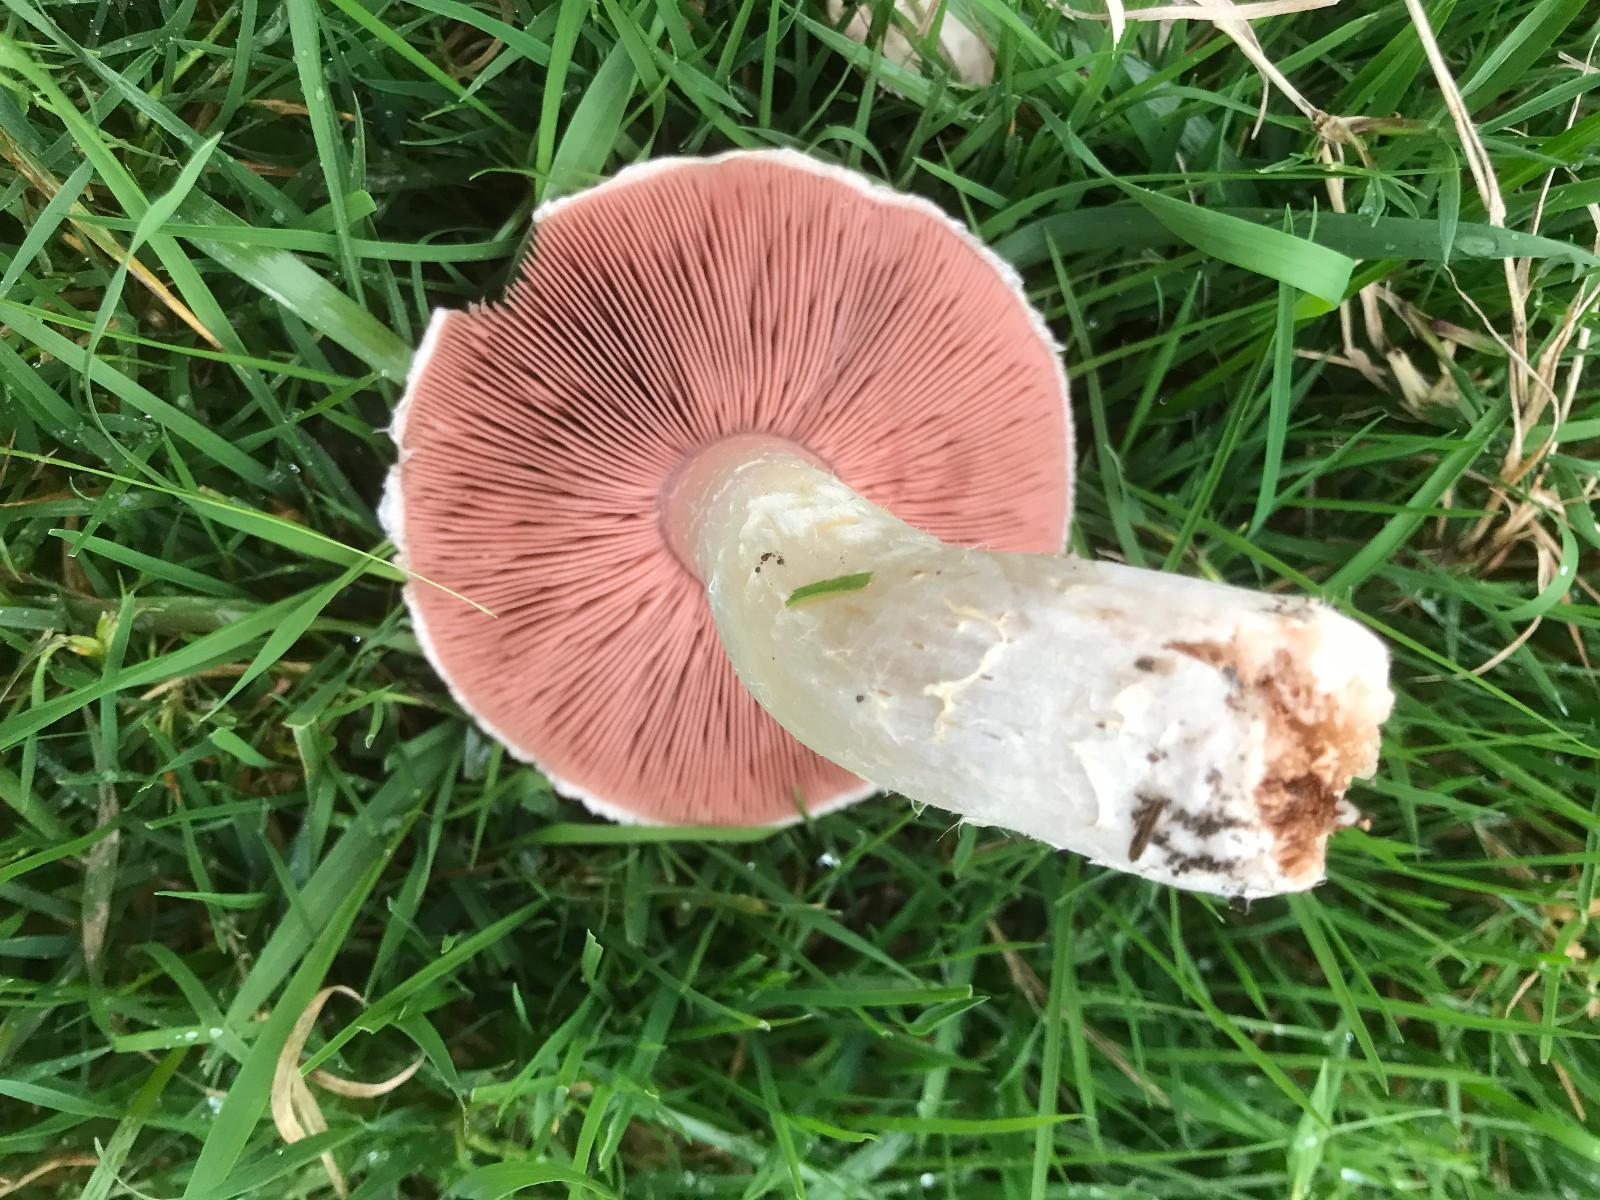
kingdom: Fungi
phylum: Basidiomycota
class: Agaricomycetes
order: Agaricales
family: Agaricaceae
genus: Agaricus
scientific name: Agaricus campestris
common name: mark-champignon
